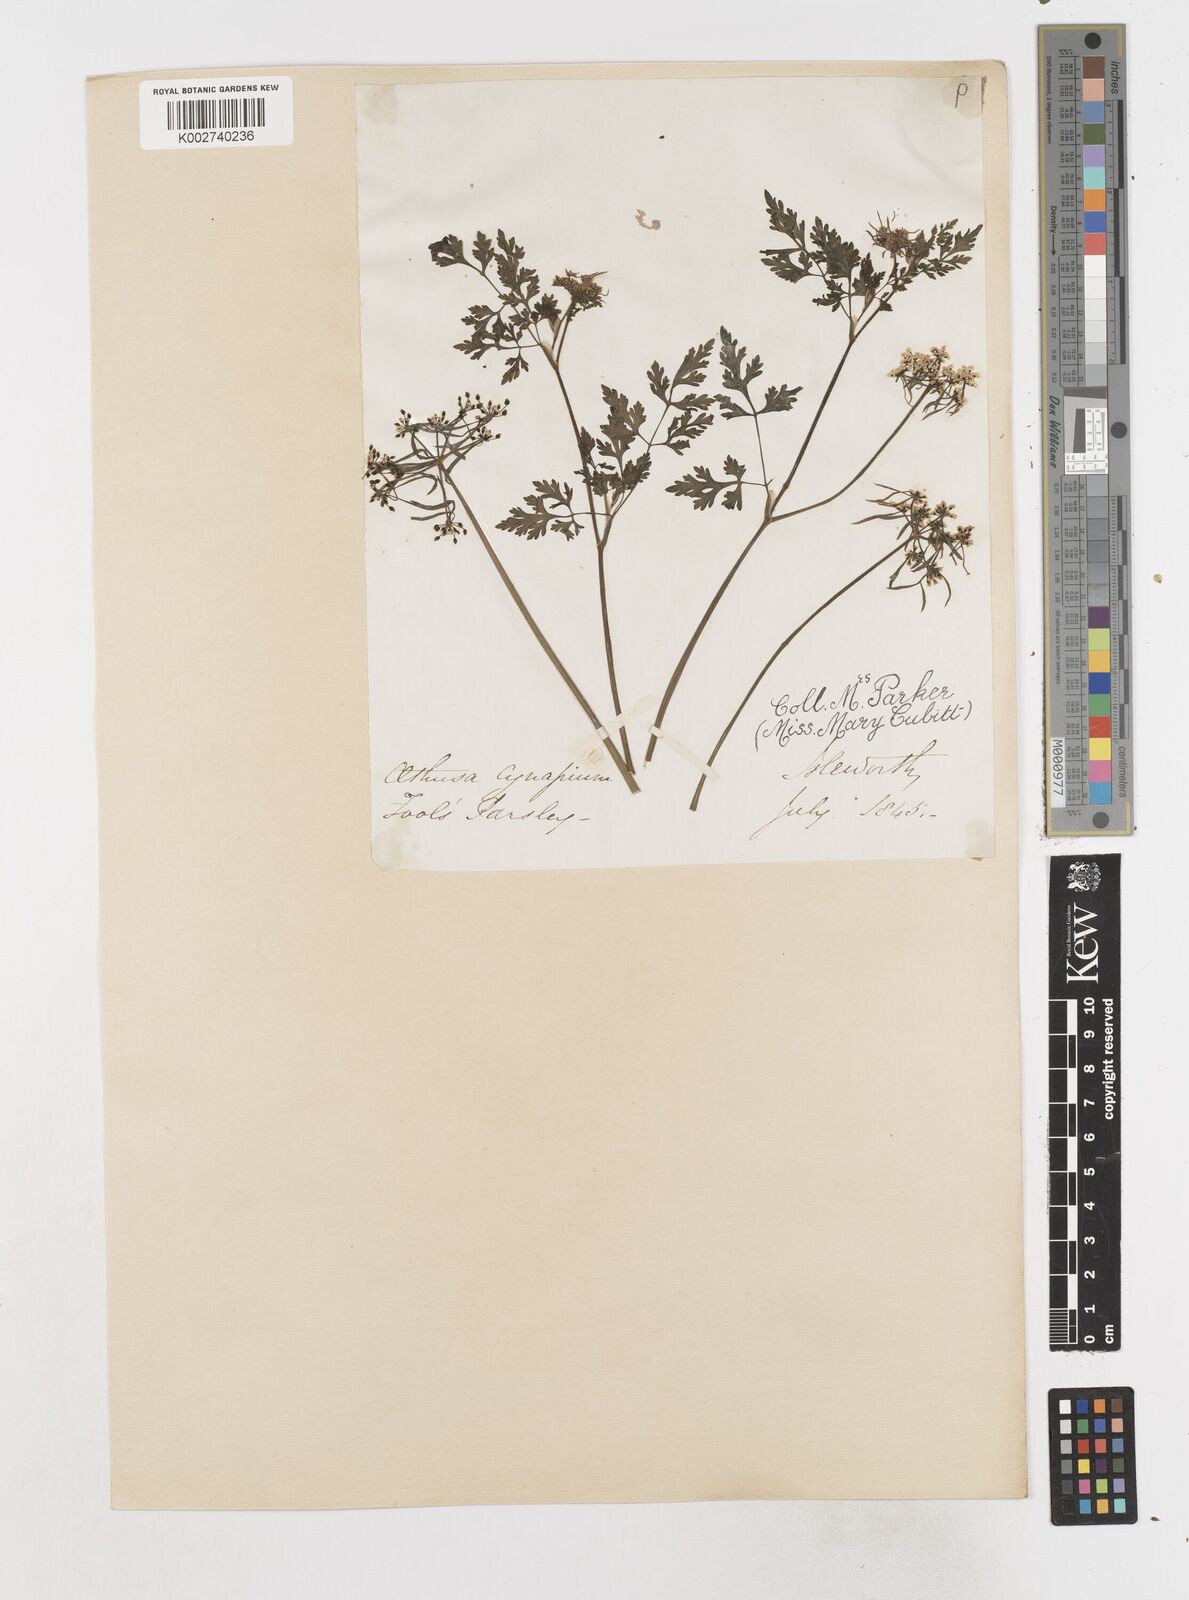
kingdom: Plantae
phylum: Tracheophyta
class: Magnoliopsida
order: Apiales
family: Apiaceae
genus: Aethusa
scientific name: Aethusa cynapium
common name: Fool's parsley
